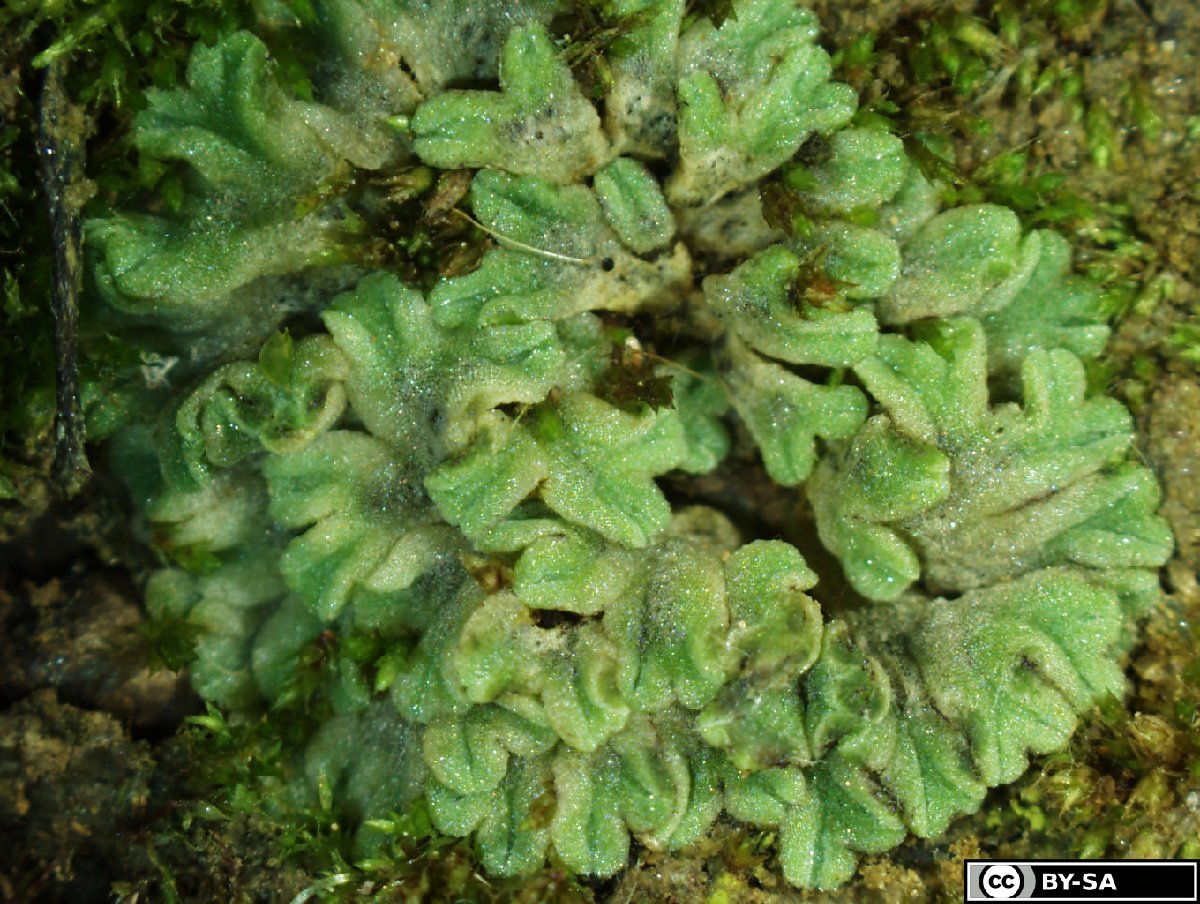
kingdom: Plantae
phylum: Marchantiophyta
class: Marchantiopsida
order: Marchantiales
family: Ricciaceae
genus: Riccia
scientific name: Riccia gothica
